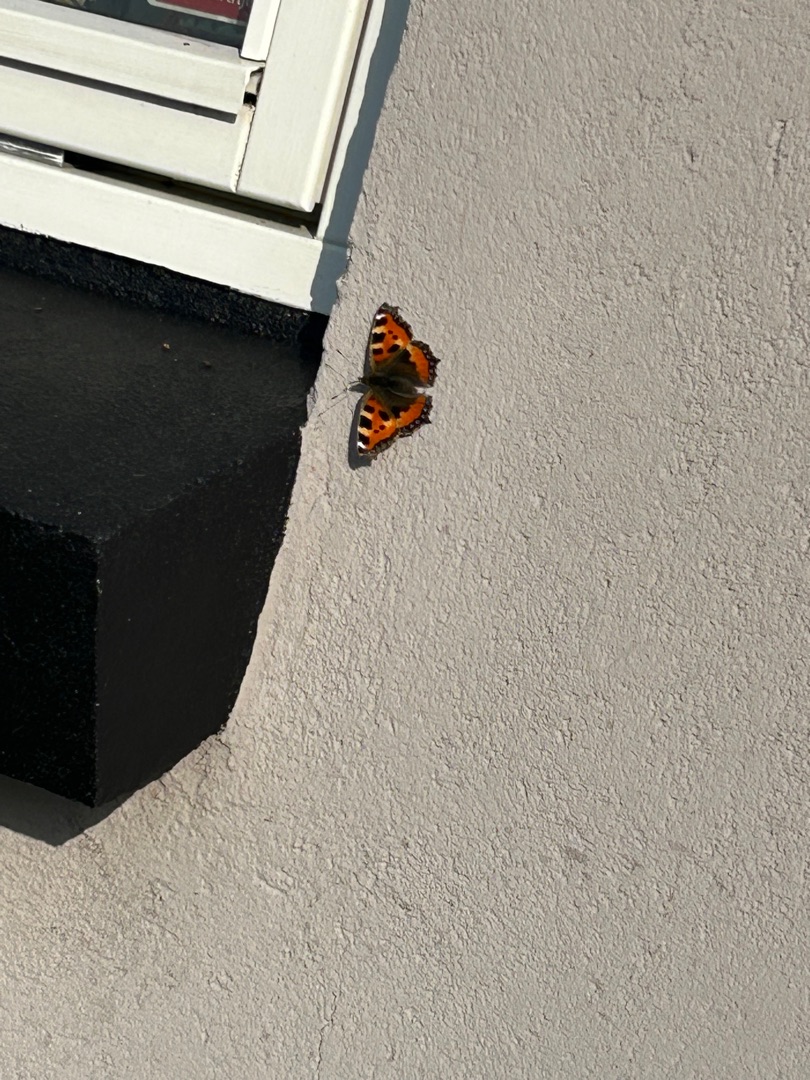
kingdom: Animalia
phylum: Arthropoda
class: Insecta
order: Lepidoptera
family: Nymphalidae
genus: Aglais
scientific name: Aglais urticae
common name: Nældens takvinge
